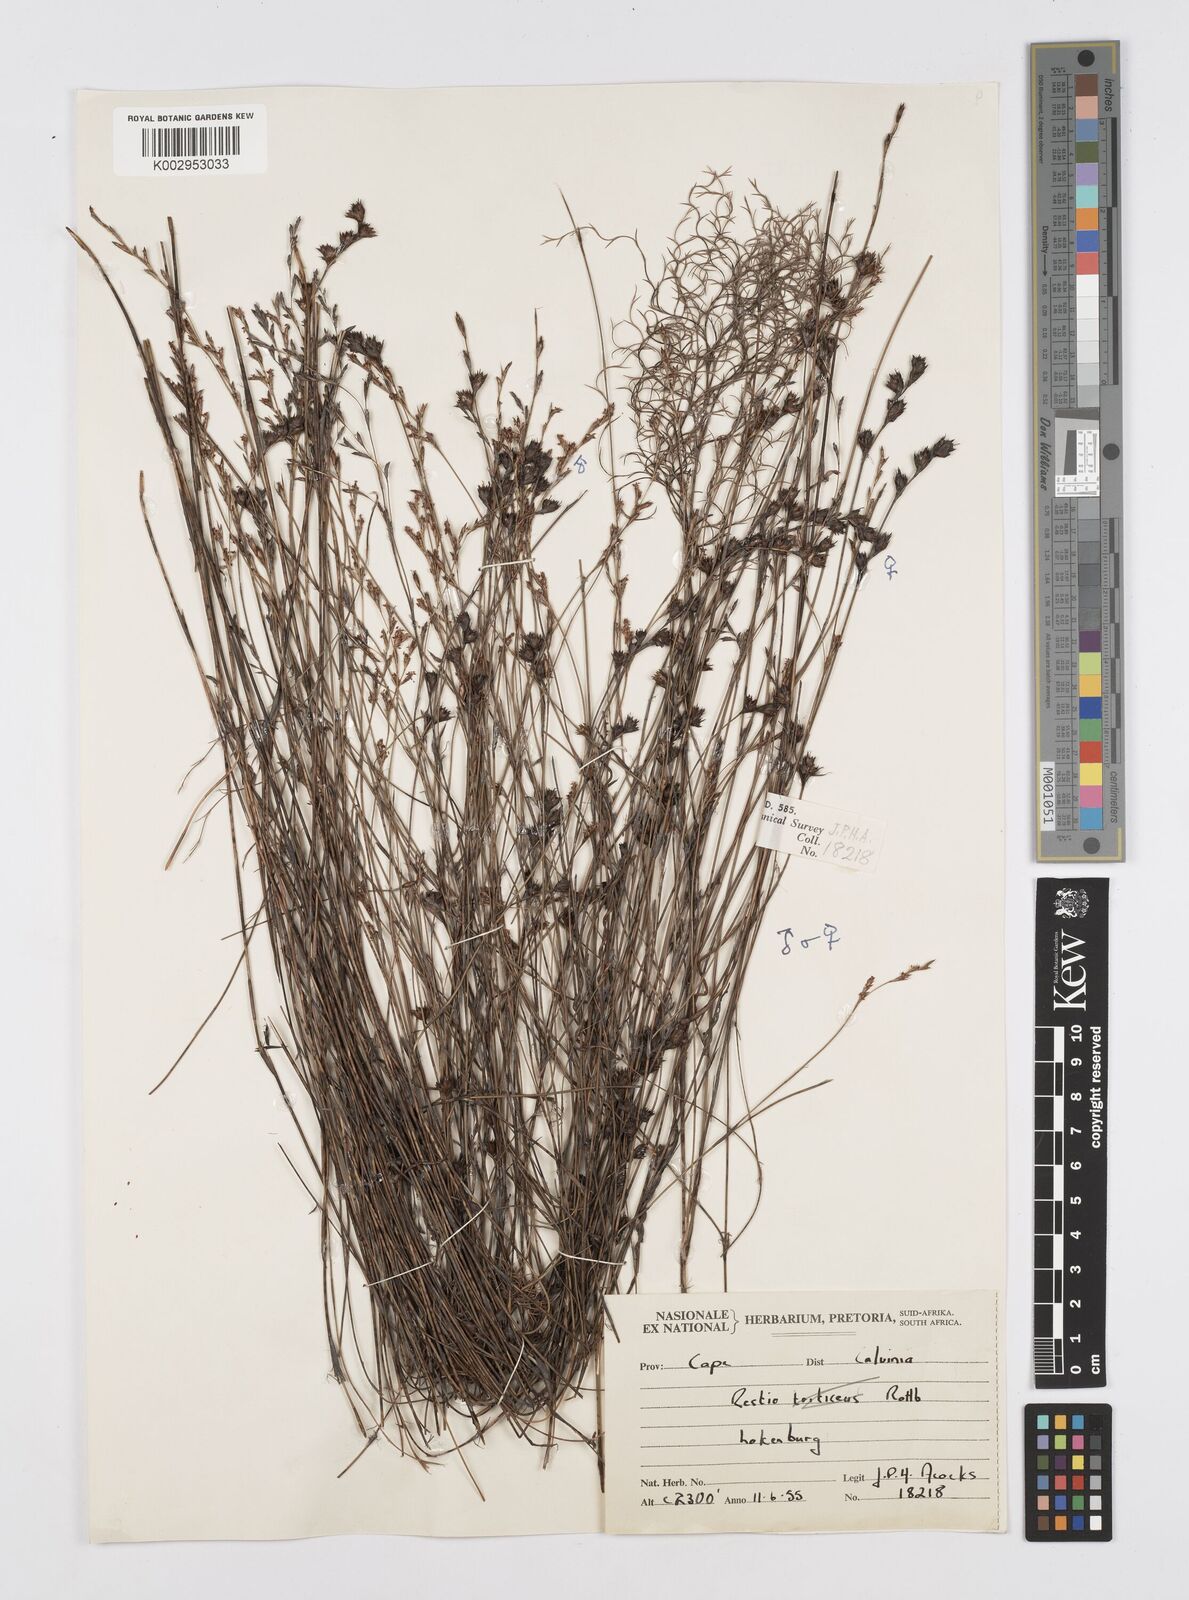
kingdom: Plantae
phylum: Tracheophyta
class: Liliopsida
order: Poales
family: Restionaceae
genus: Restio
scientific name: Restio sieberi
